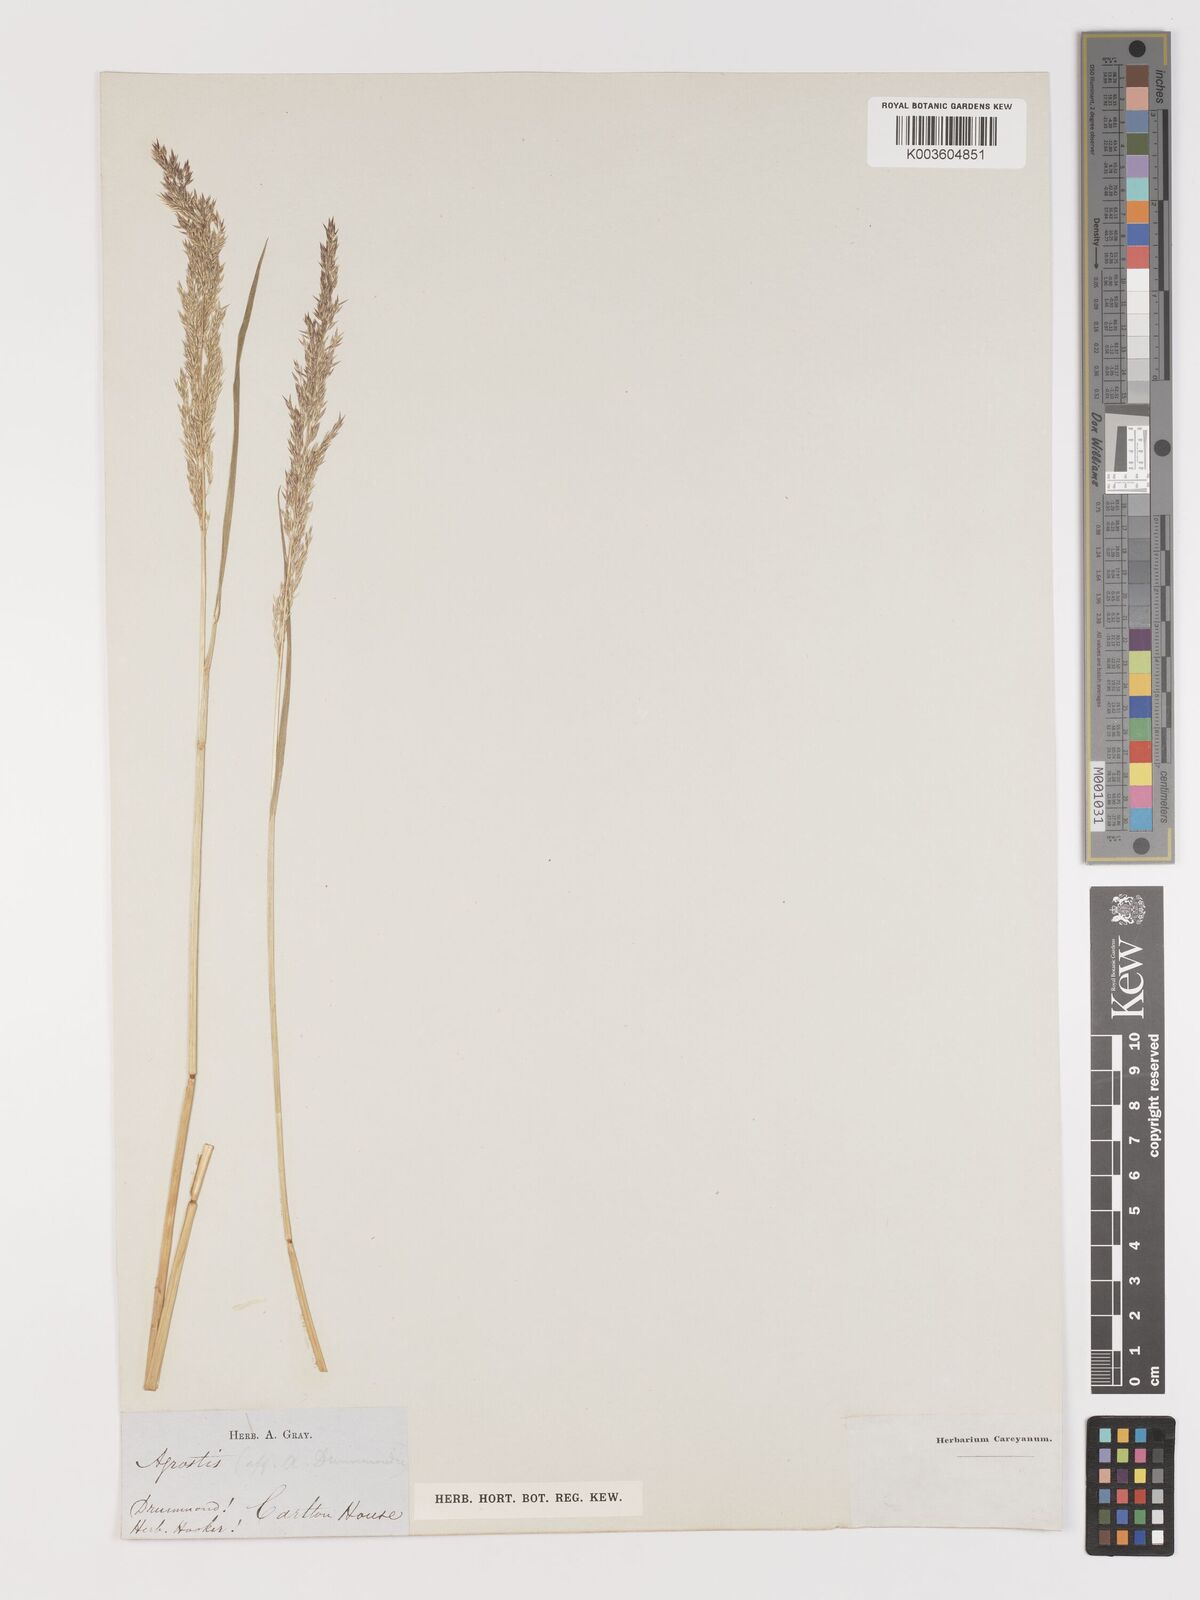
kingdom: Plantae
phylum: Tracheophyta
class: Liliopsida
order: Poales
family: Poaceae
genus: Agrostis
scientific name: Agrostis
